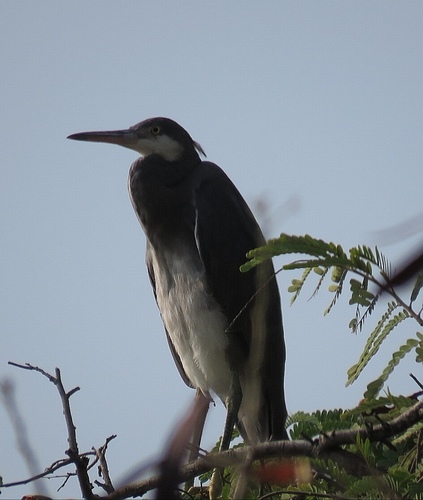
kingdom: Animalia
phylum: Chordata
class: Aves
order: Pelecaniformes
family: Ardeidae
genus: Egretta
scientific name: Egretta gularis
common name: Western reef-heron
